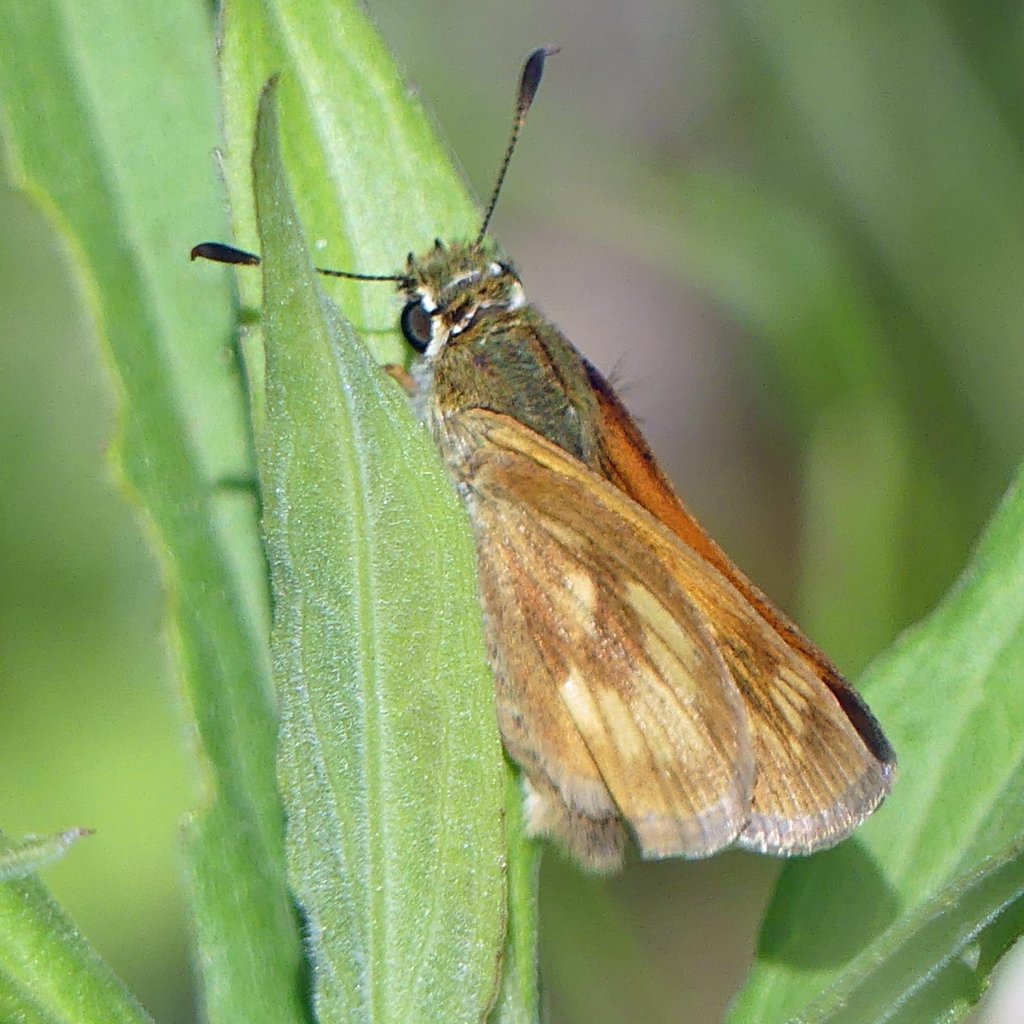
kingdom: Animalia
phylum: Arthropoda
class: Insecta
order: Lepidoptera
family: Hesperiidae
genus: Polites
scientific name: Polites
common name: Long Dash Skipper
